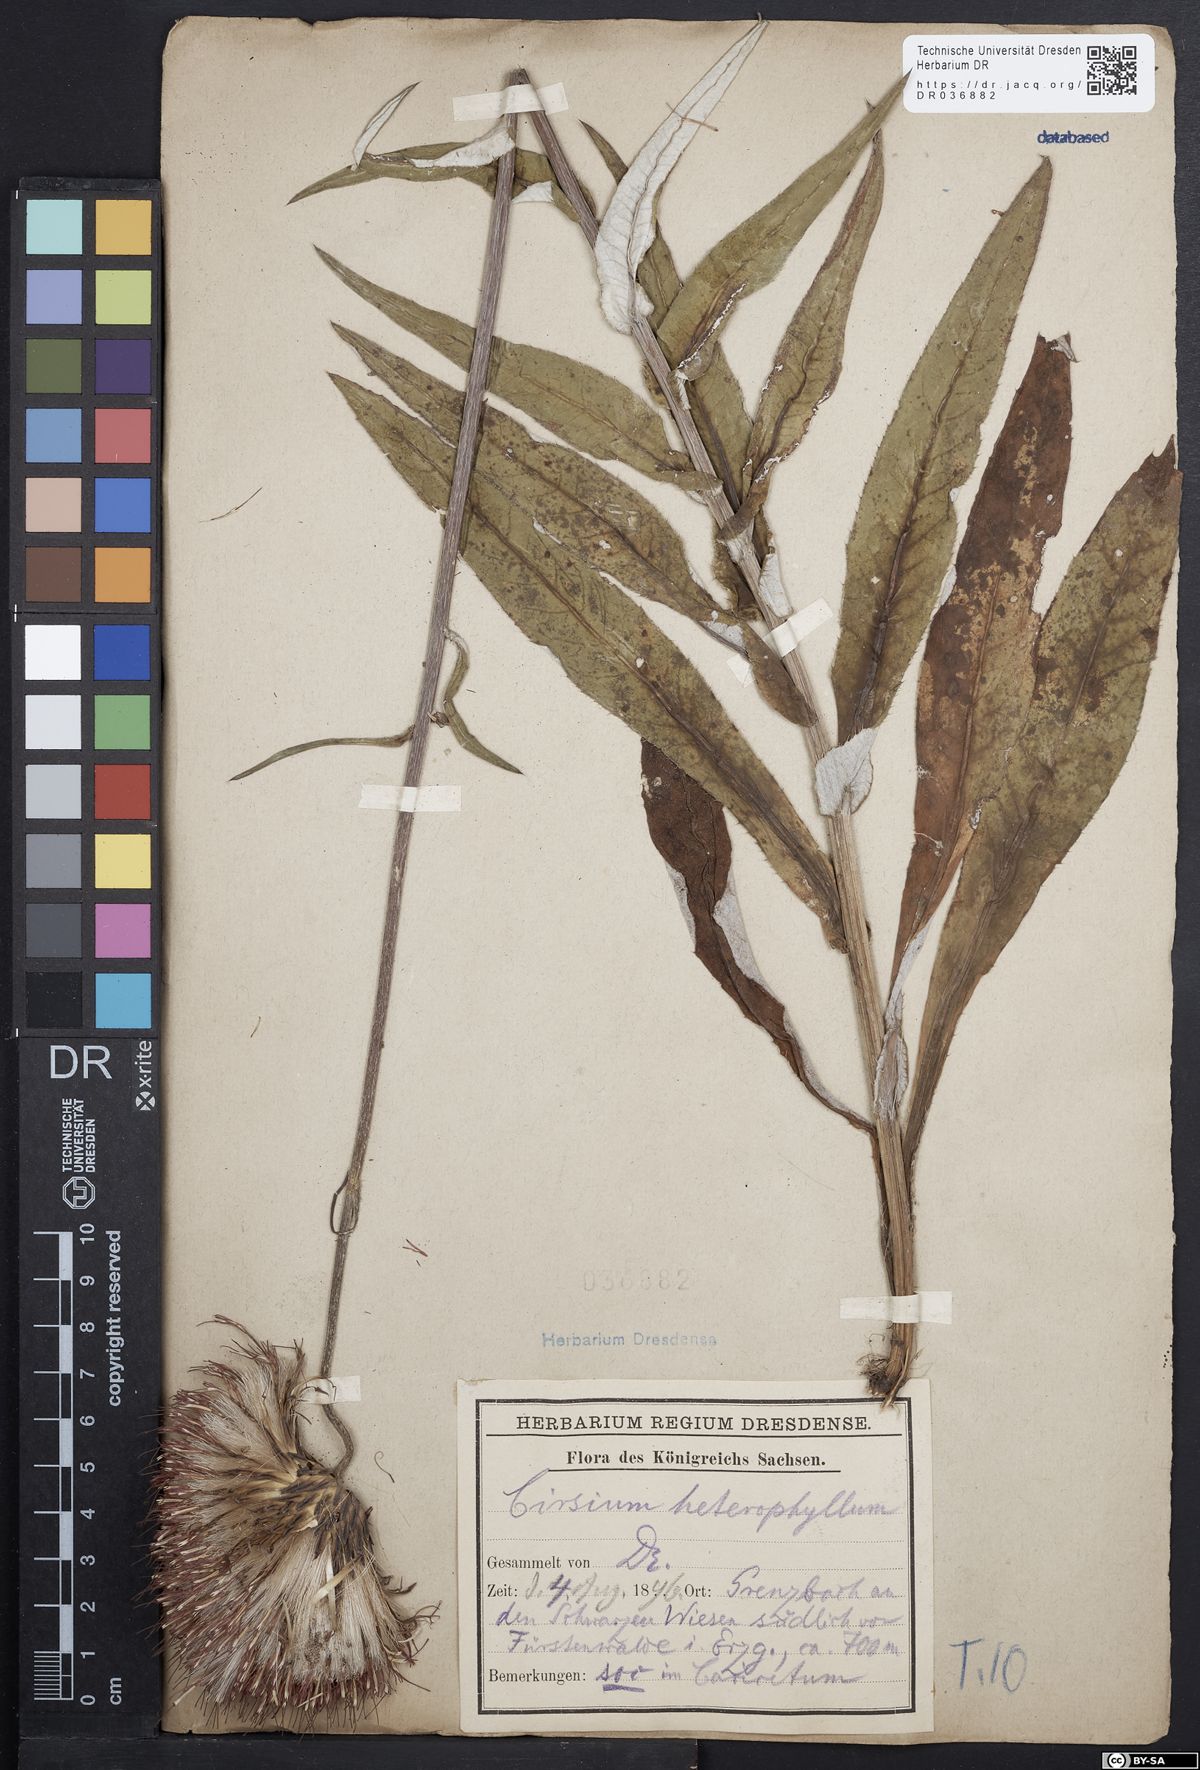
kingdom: Plantae
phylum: Tracheophyta
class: Magnoliopsida
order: Asterales
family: Asteraceae
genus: Cirsium
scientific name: Cirsium helenioides
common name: Melancholy thistle
